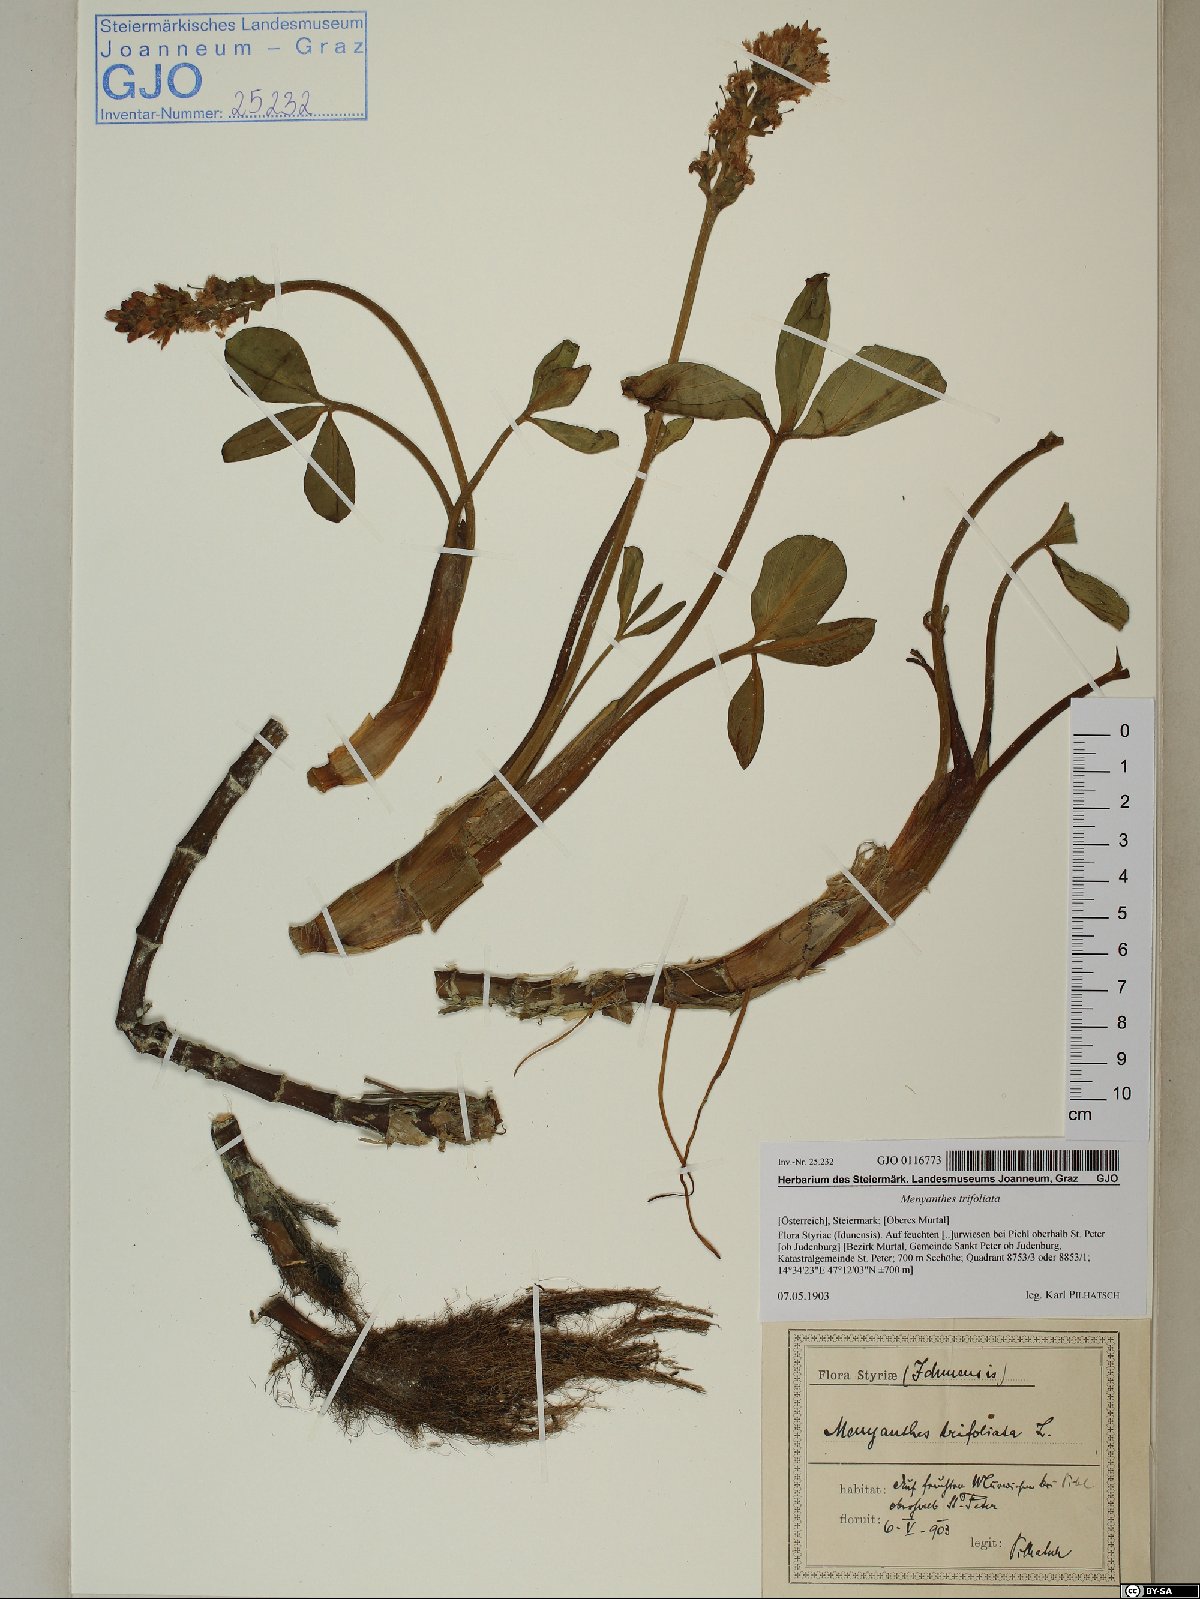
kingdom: Plantae
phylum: Tracheophyta
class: Magnoliopsida
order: Asterales
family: Menyanthaceae
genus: Menyanthes
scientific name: Menyanthes trifoliata
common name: Bogbean
